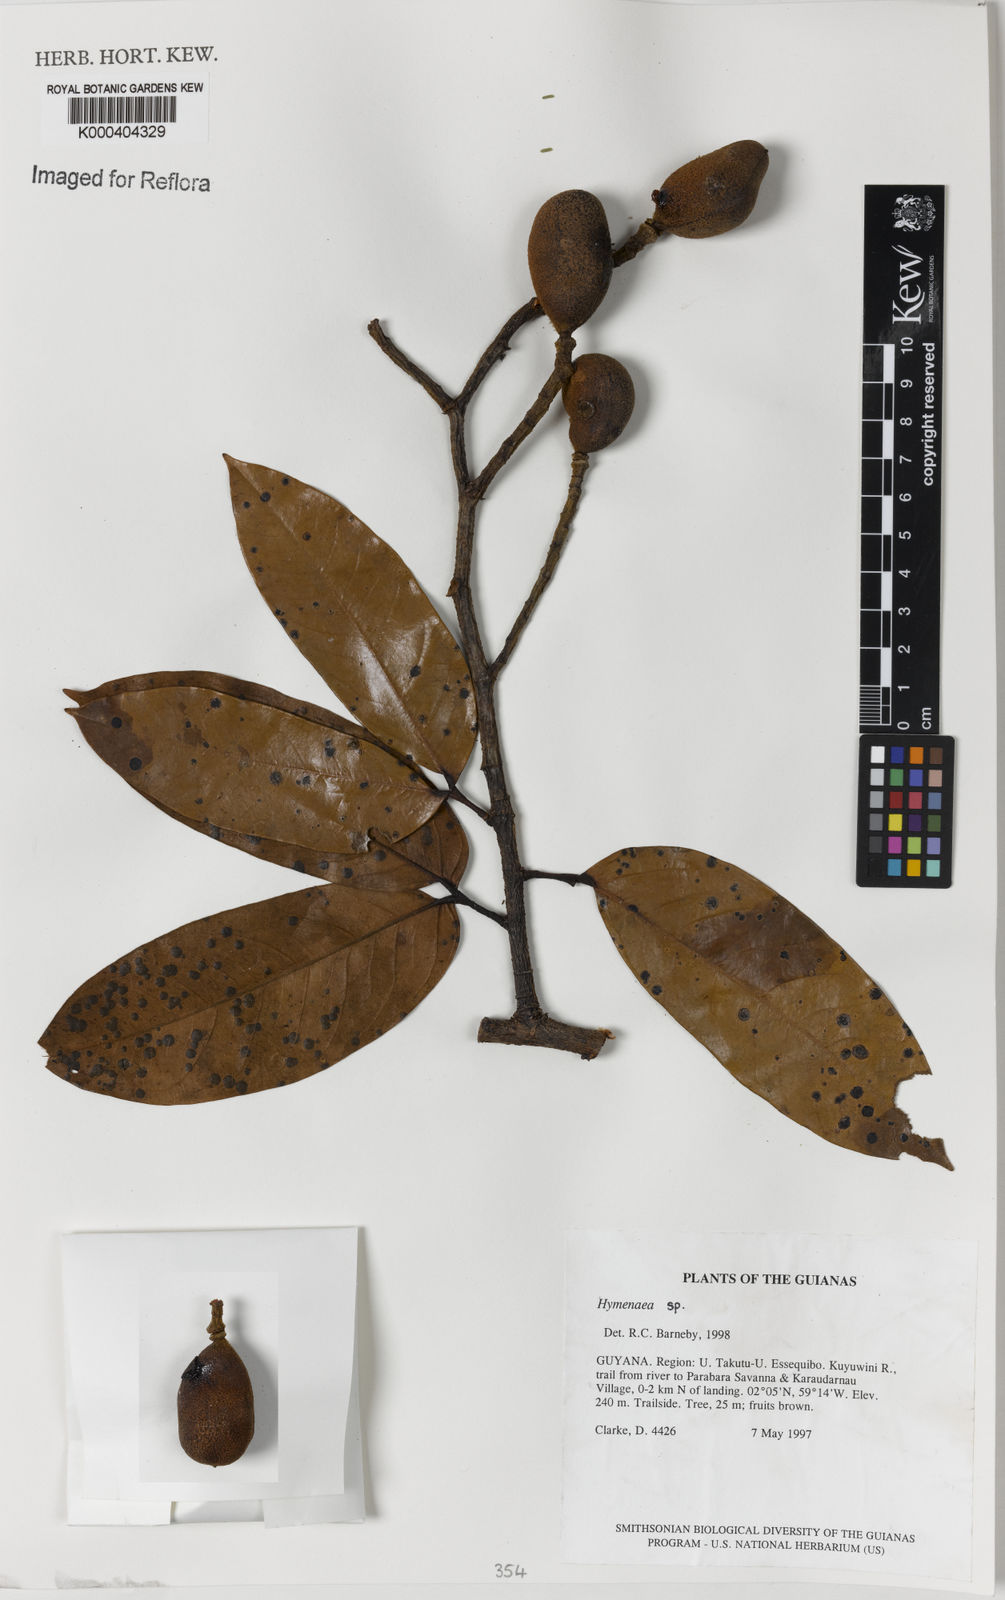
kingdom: Plantae
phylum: Tracheophyta
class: Magnoliopsida
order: Fabales
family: Fabaceae
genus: Hymenaea
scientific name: Hymenaea
